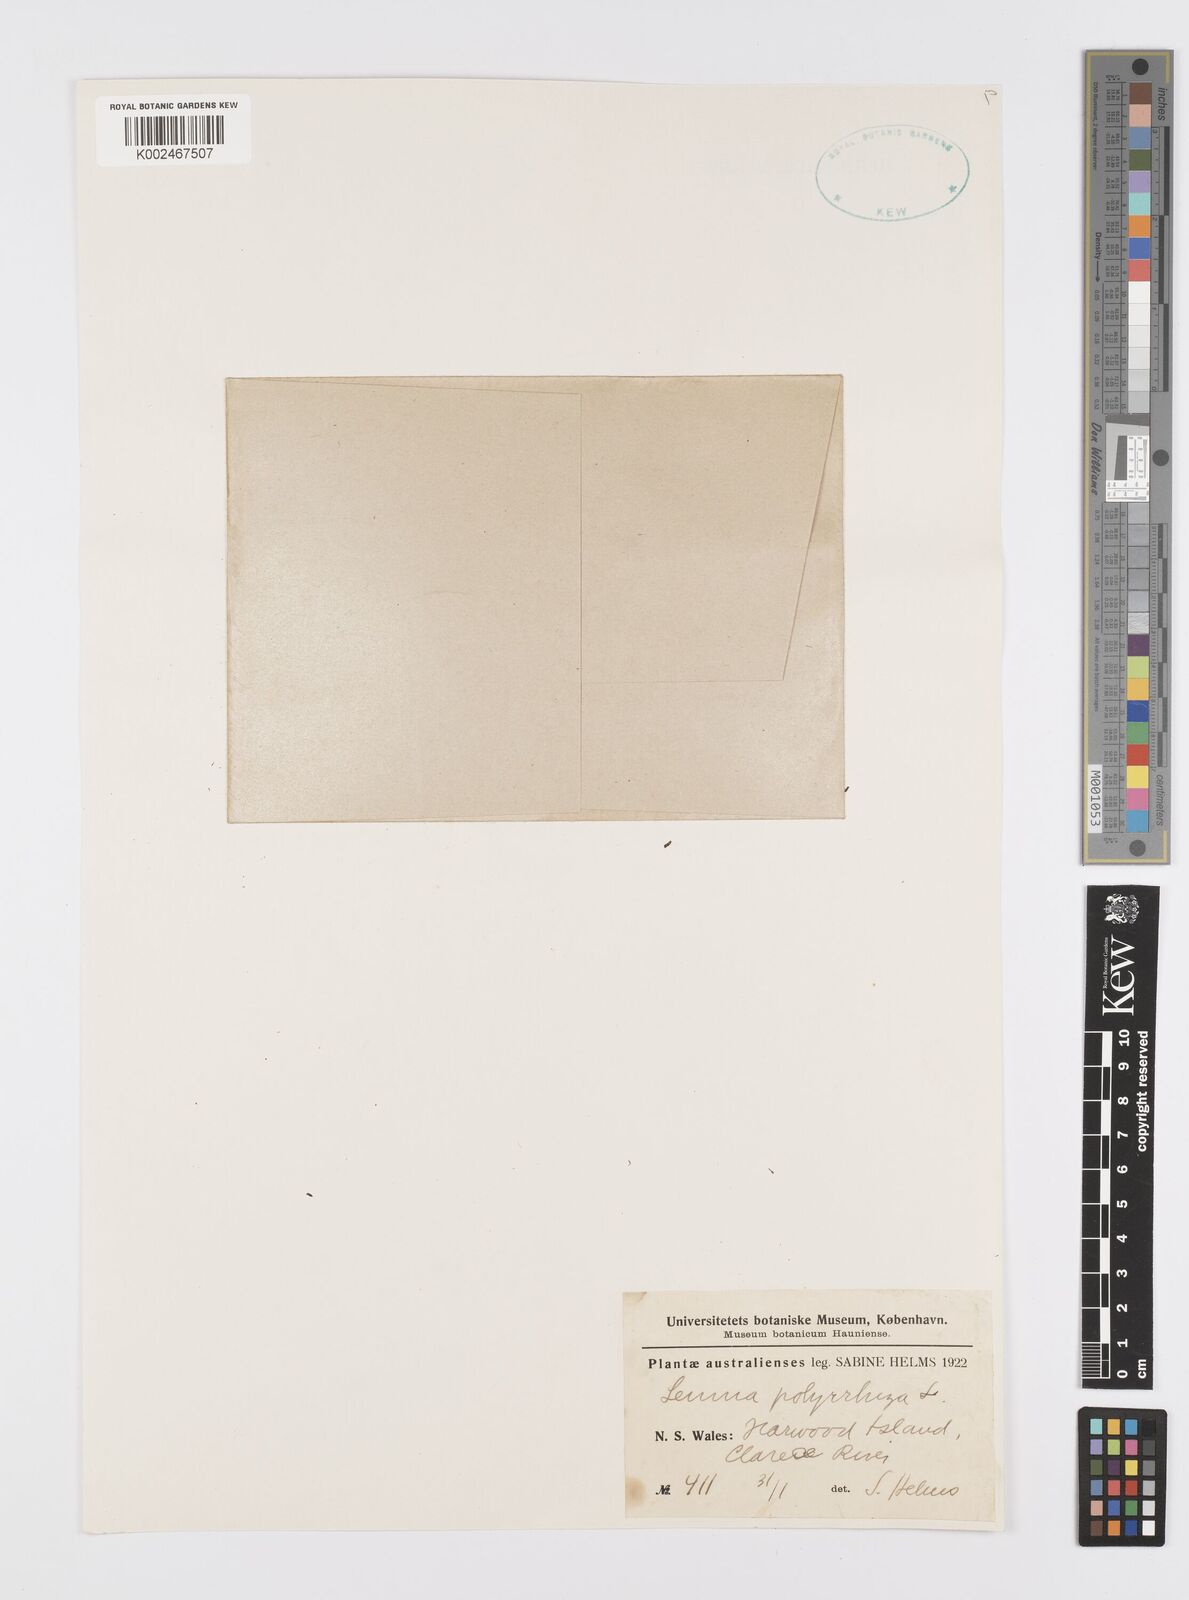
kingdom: Plantae
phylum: Tracheophyta
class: Liliopsida
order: Alismatales
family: Araceae
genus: Spirodela
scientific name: Spirodela polyrhiza
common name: Great duckweed
